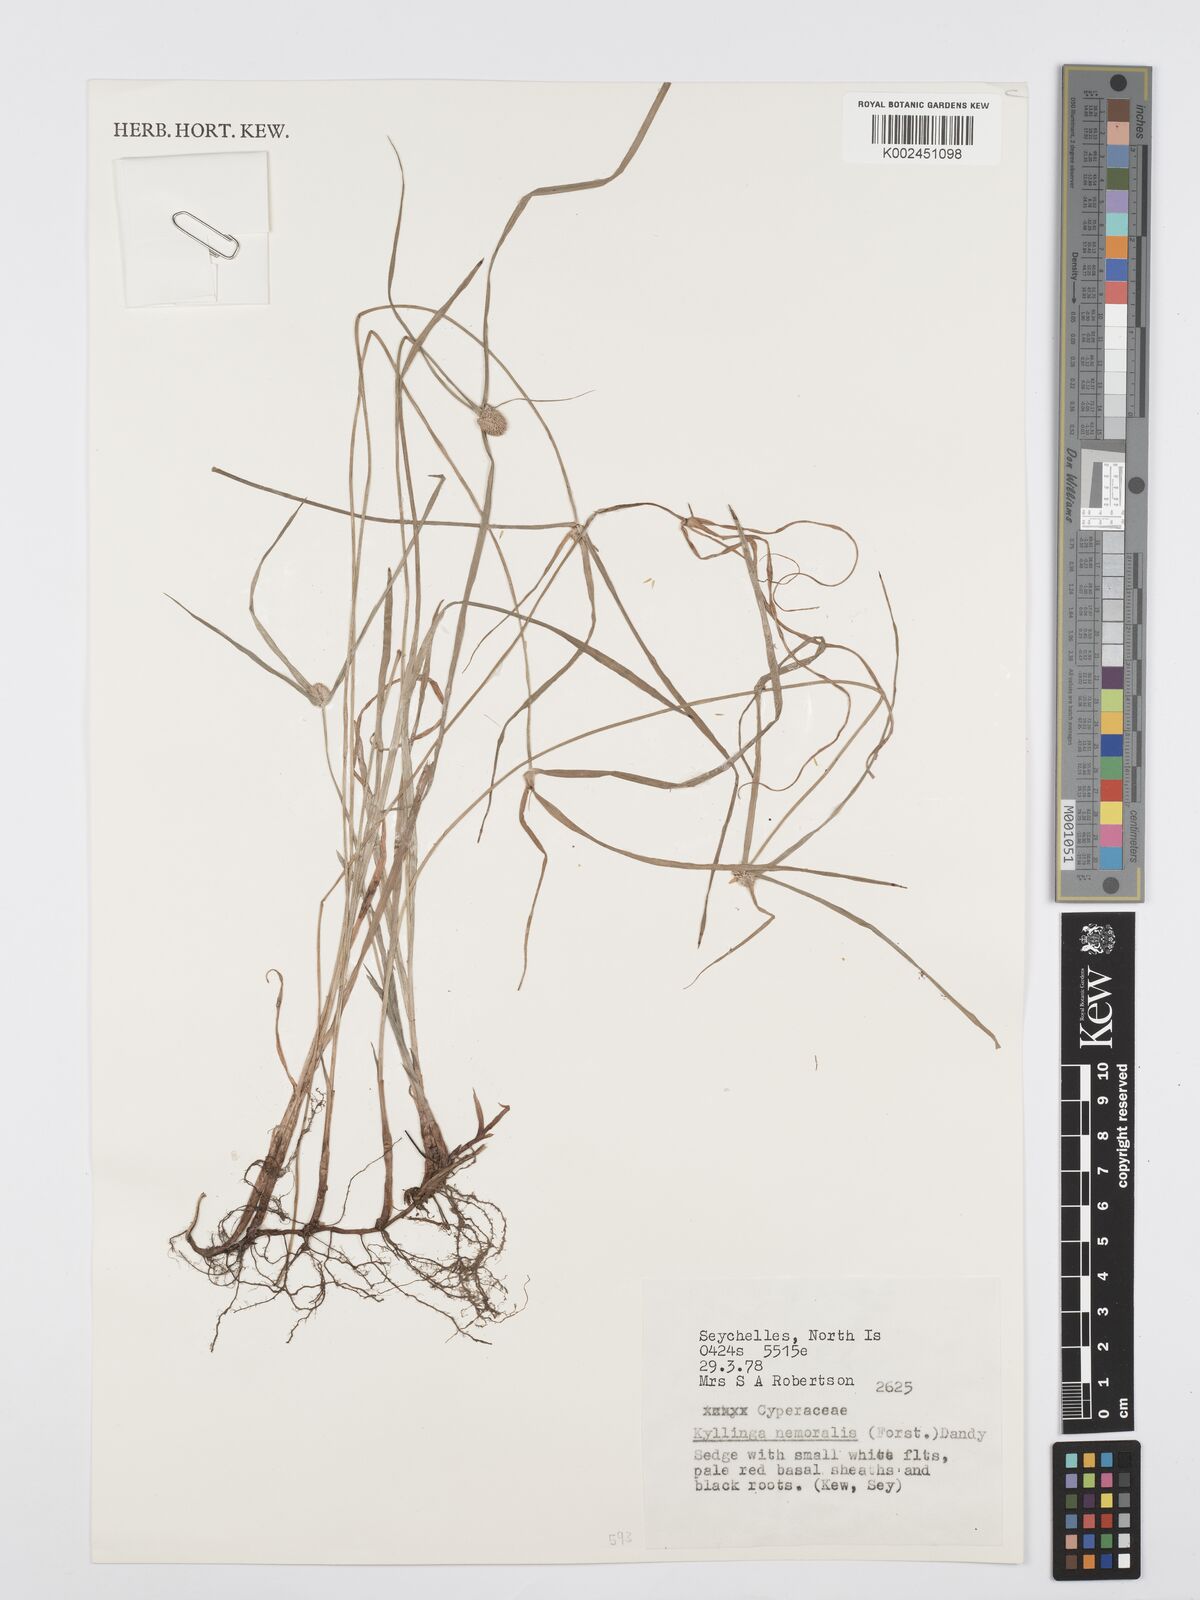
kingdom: Plantae
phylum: Tracheophyta
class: Liliopsida
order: Poales
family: Cyperaceae
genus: Cyperus
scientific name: Cyperus nemoralis
